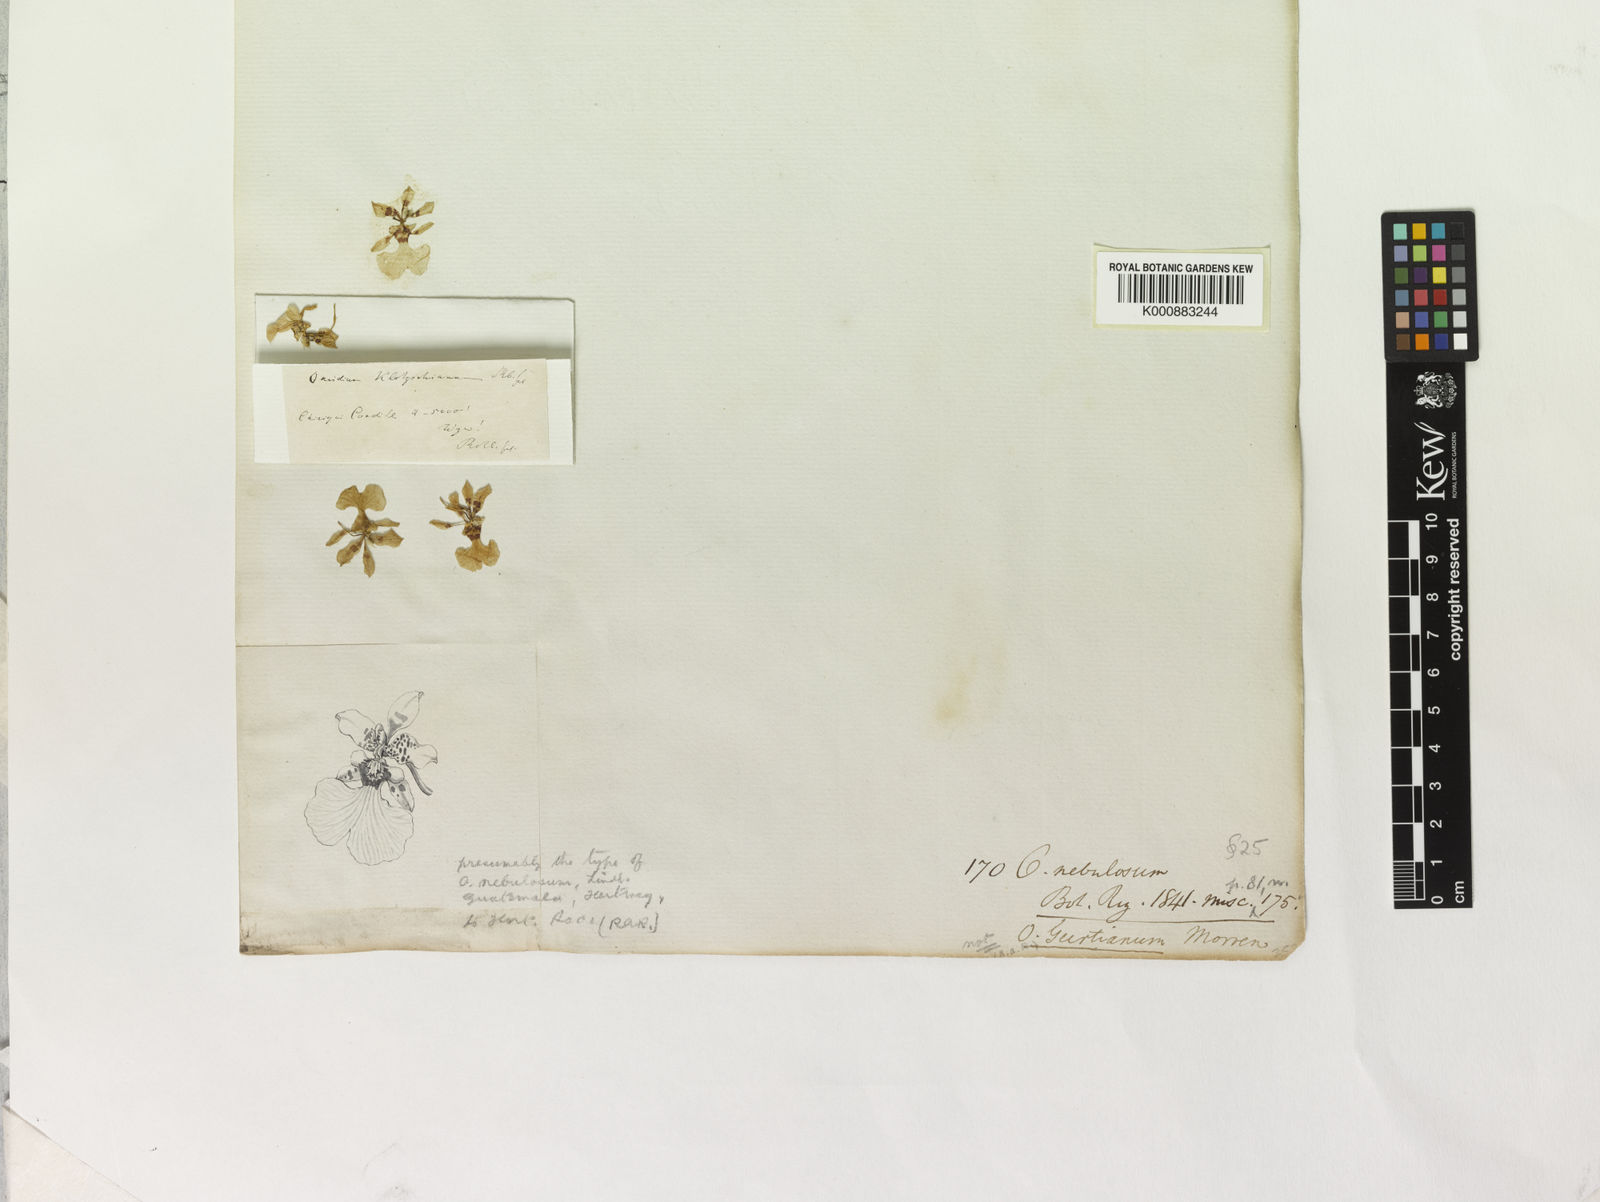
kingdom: Plantae
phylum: Tracheophyta
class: Liliopsida
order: Asparagales
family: Orchidaceae
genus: Oncidium
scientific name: Oncidium nebulosum
